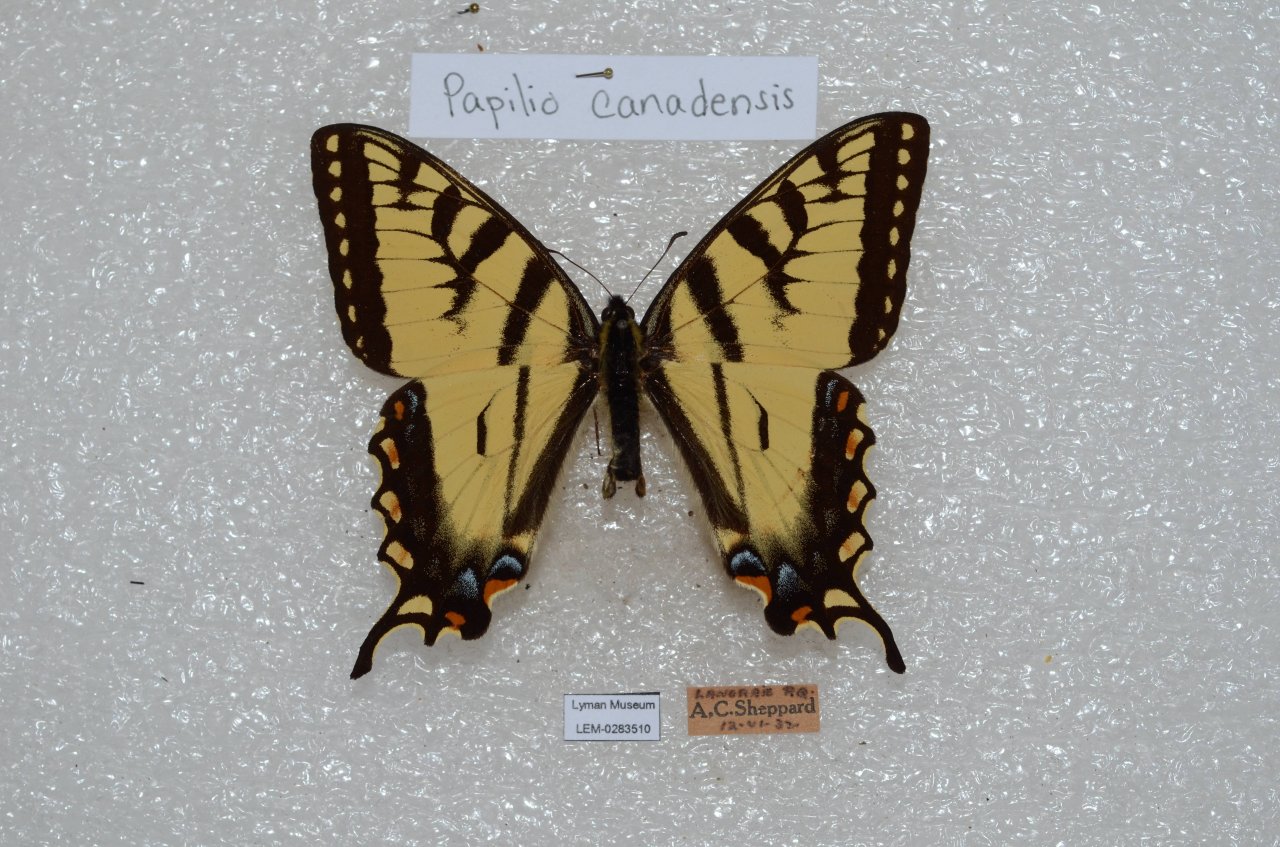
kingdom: Animalia
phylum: Arthropoda
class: Insecta
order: Lepidoptera
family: Papilionidae
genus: Pterourus
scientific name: Pterourus canadensis
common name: Canadian Tiger Swallowtail
